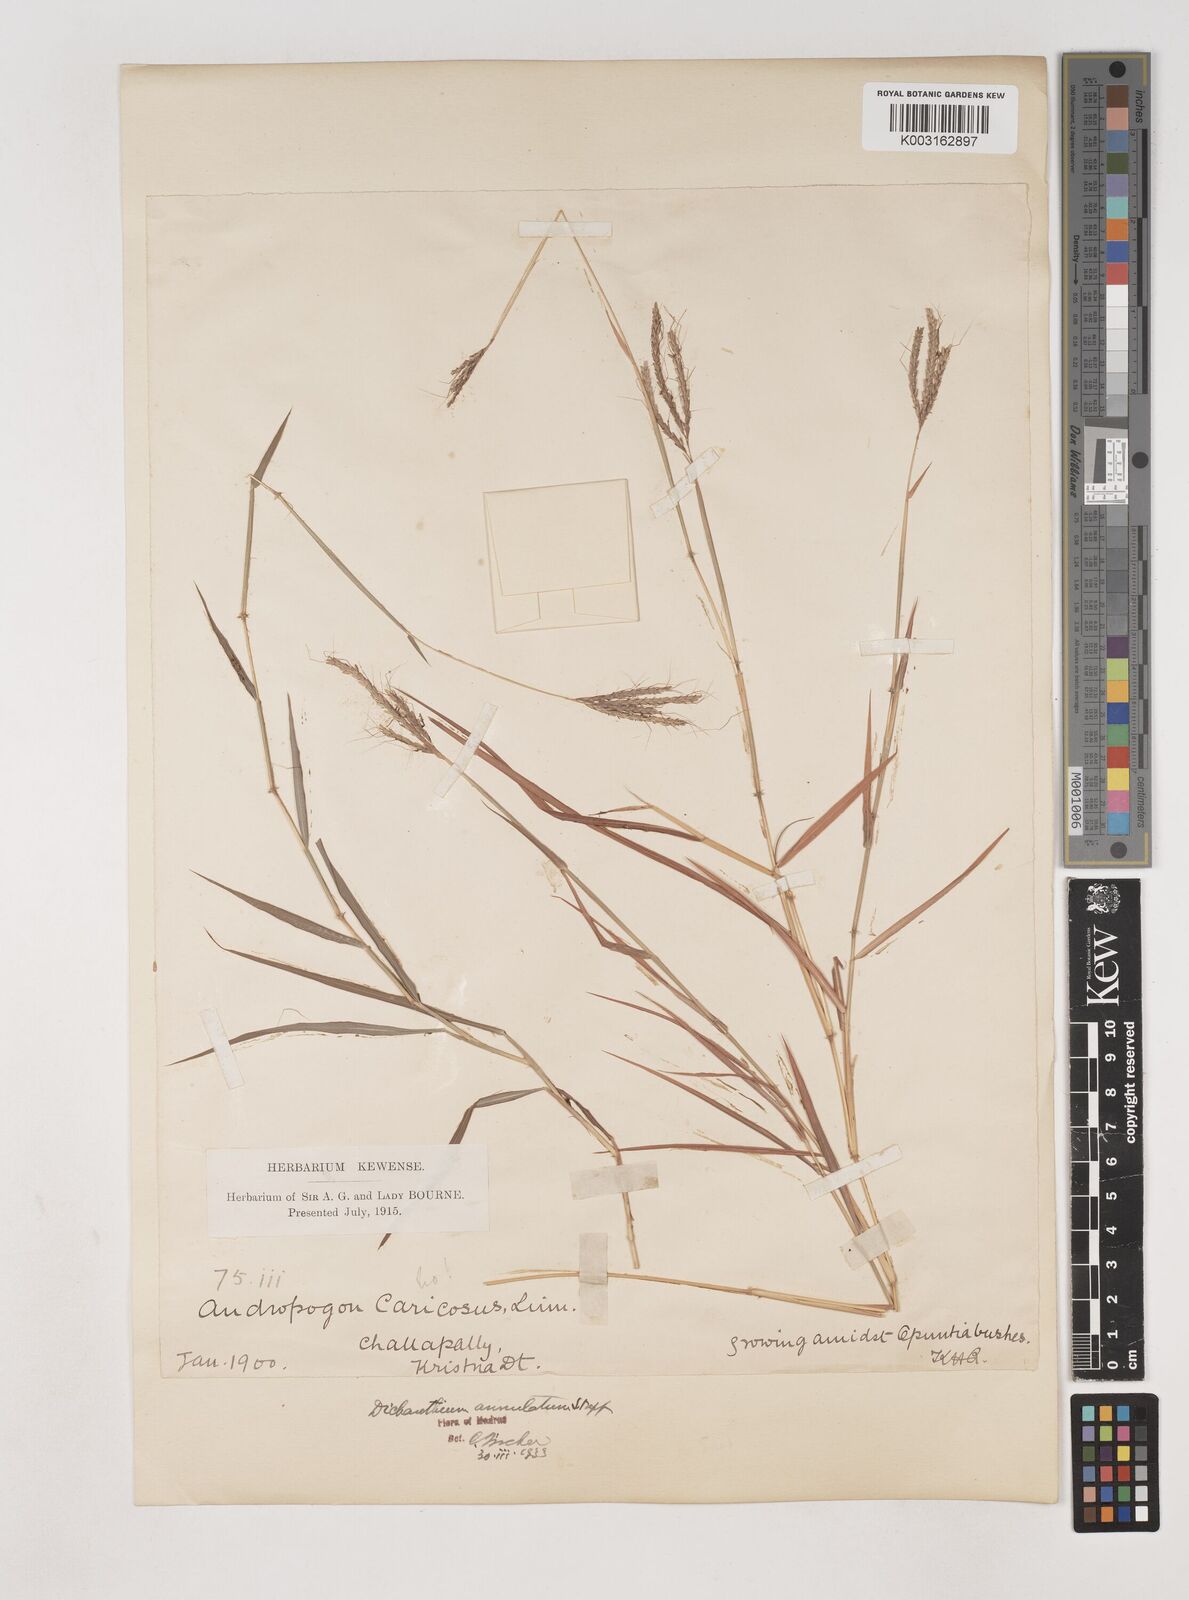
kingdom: Plantae
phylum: Tracheophyta
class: Liliopsida
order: Poales
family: Poaceae
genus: Dichanthium
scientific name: Dichanthium annulatum
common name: Kleberg's bluestem
